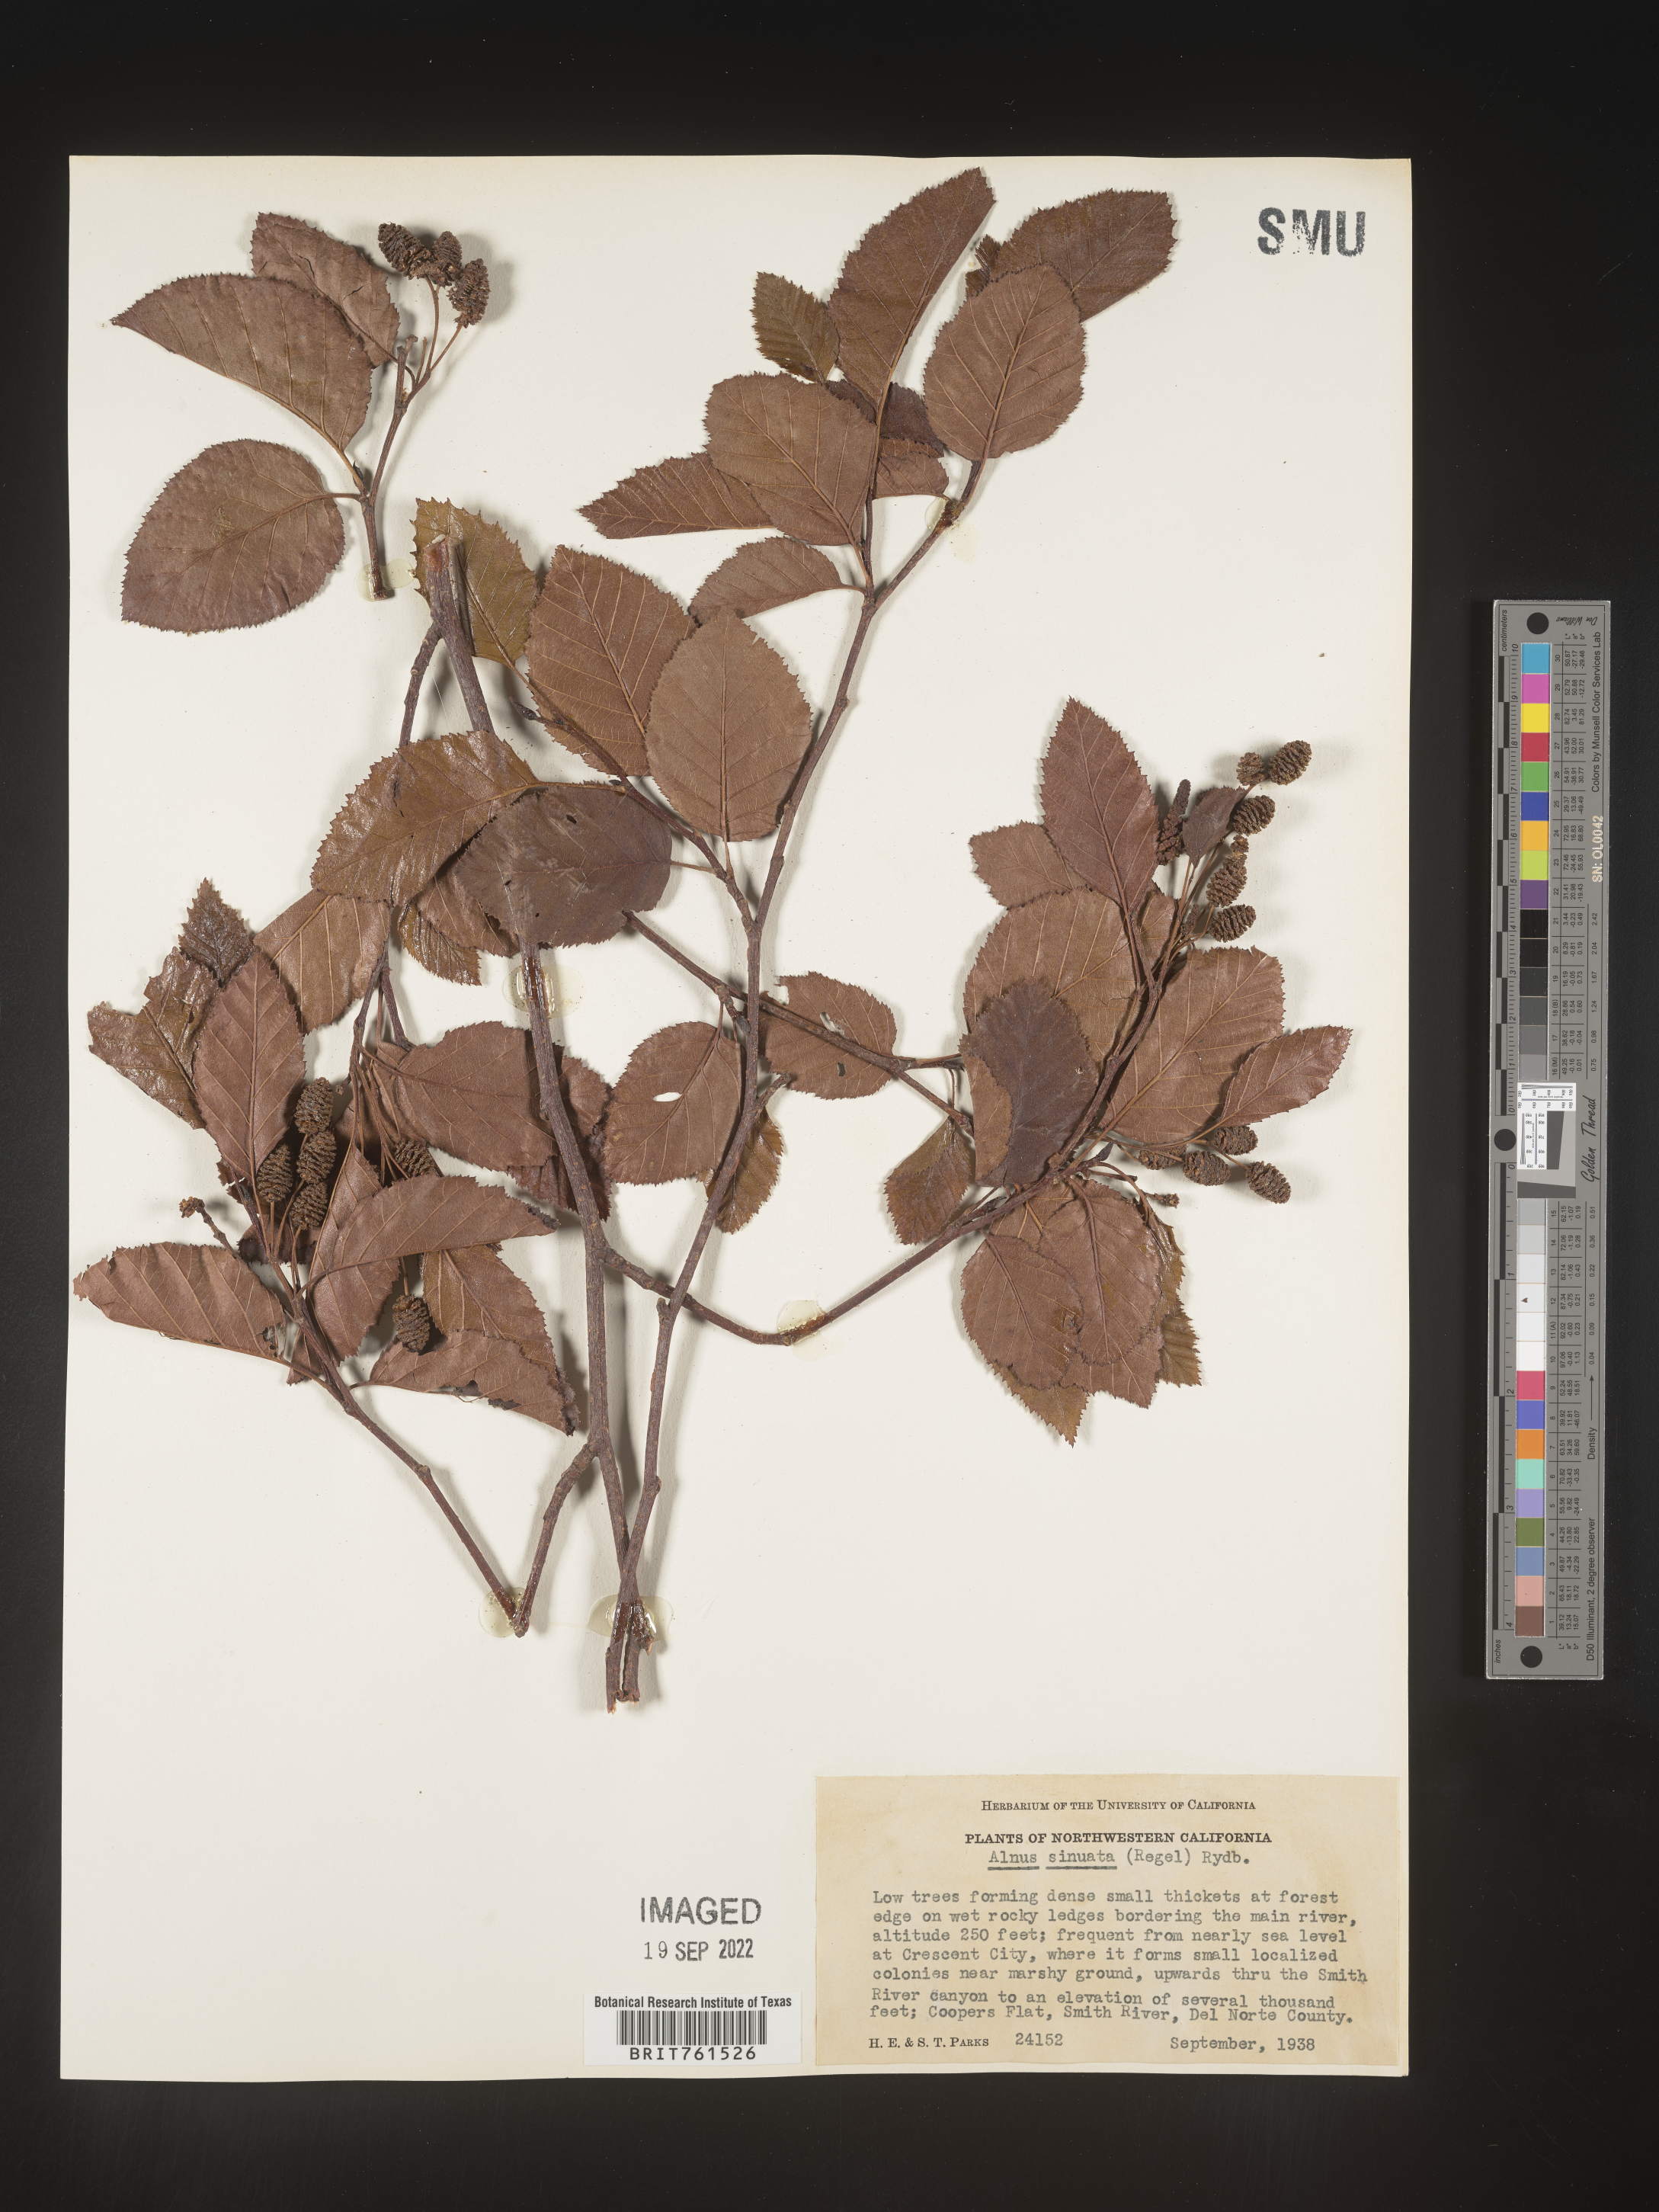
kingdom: Plantae
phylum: Tracheophyta
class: Magnoliopsida
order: Fagales
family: Betulaceae
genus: Alnus
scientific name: Alnus alnobetula
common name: Green alder
